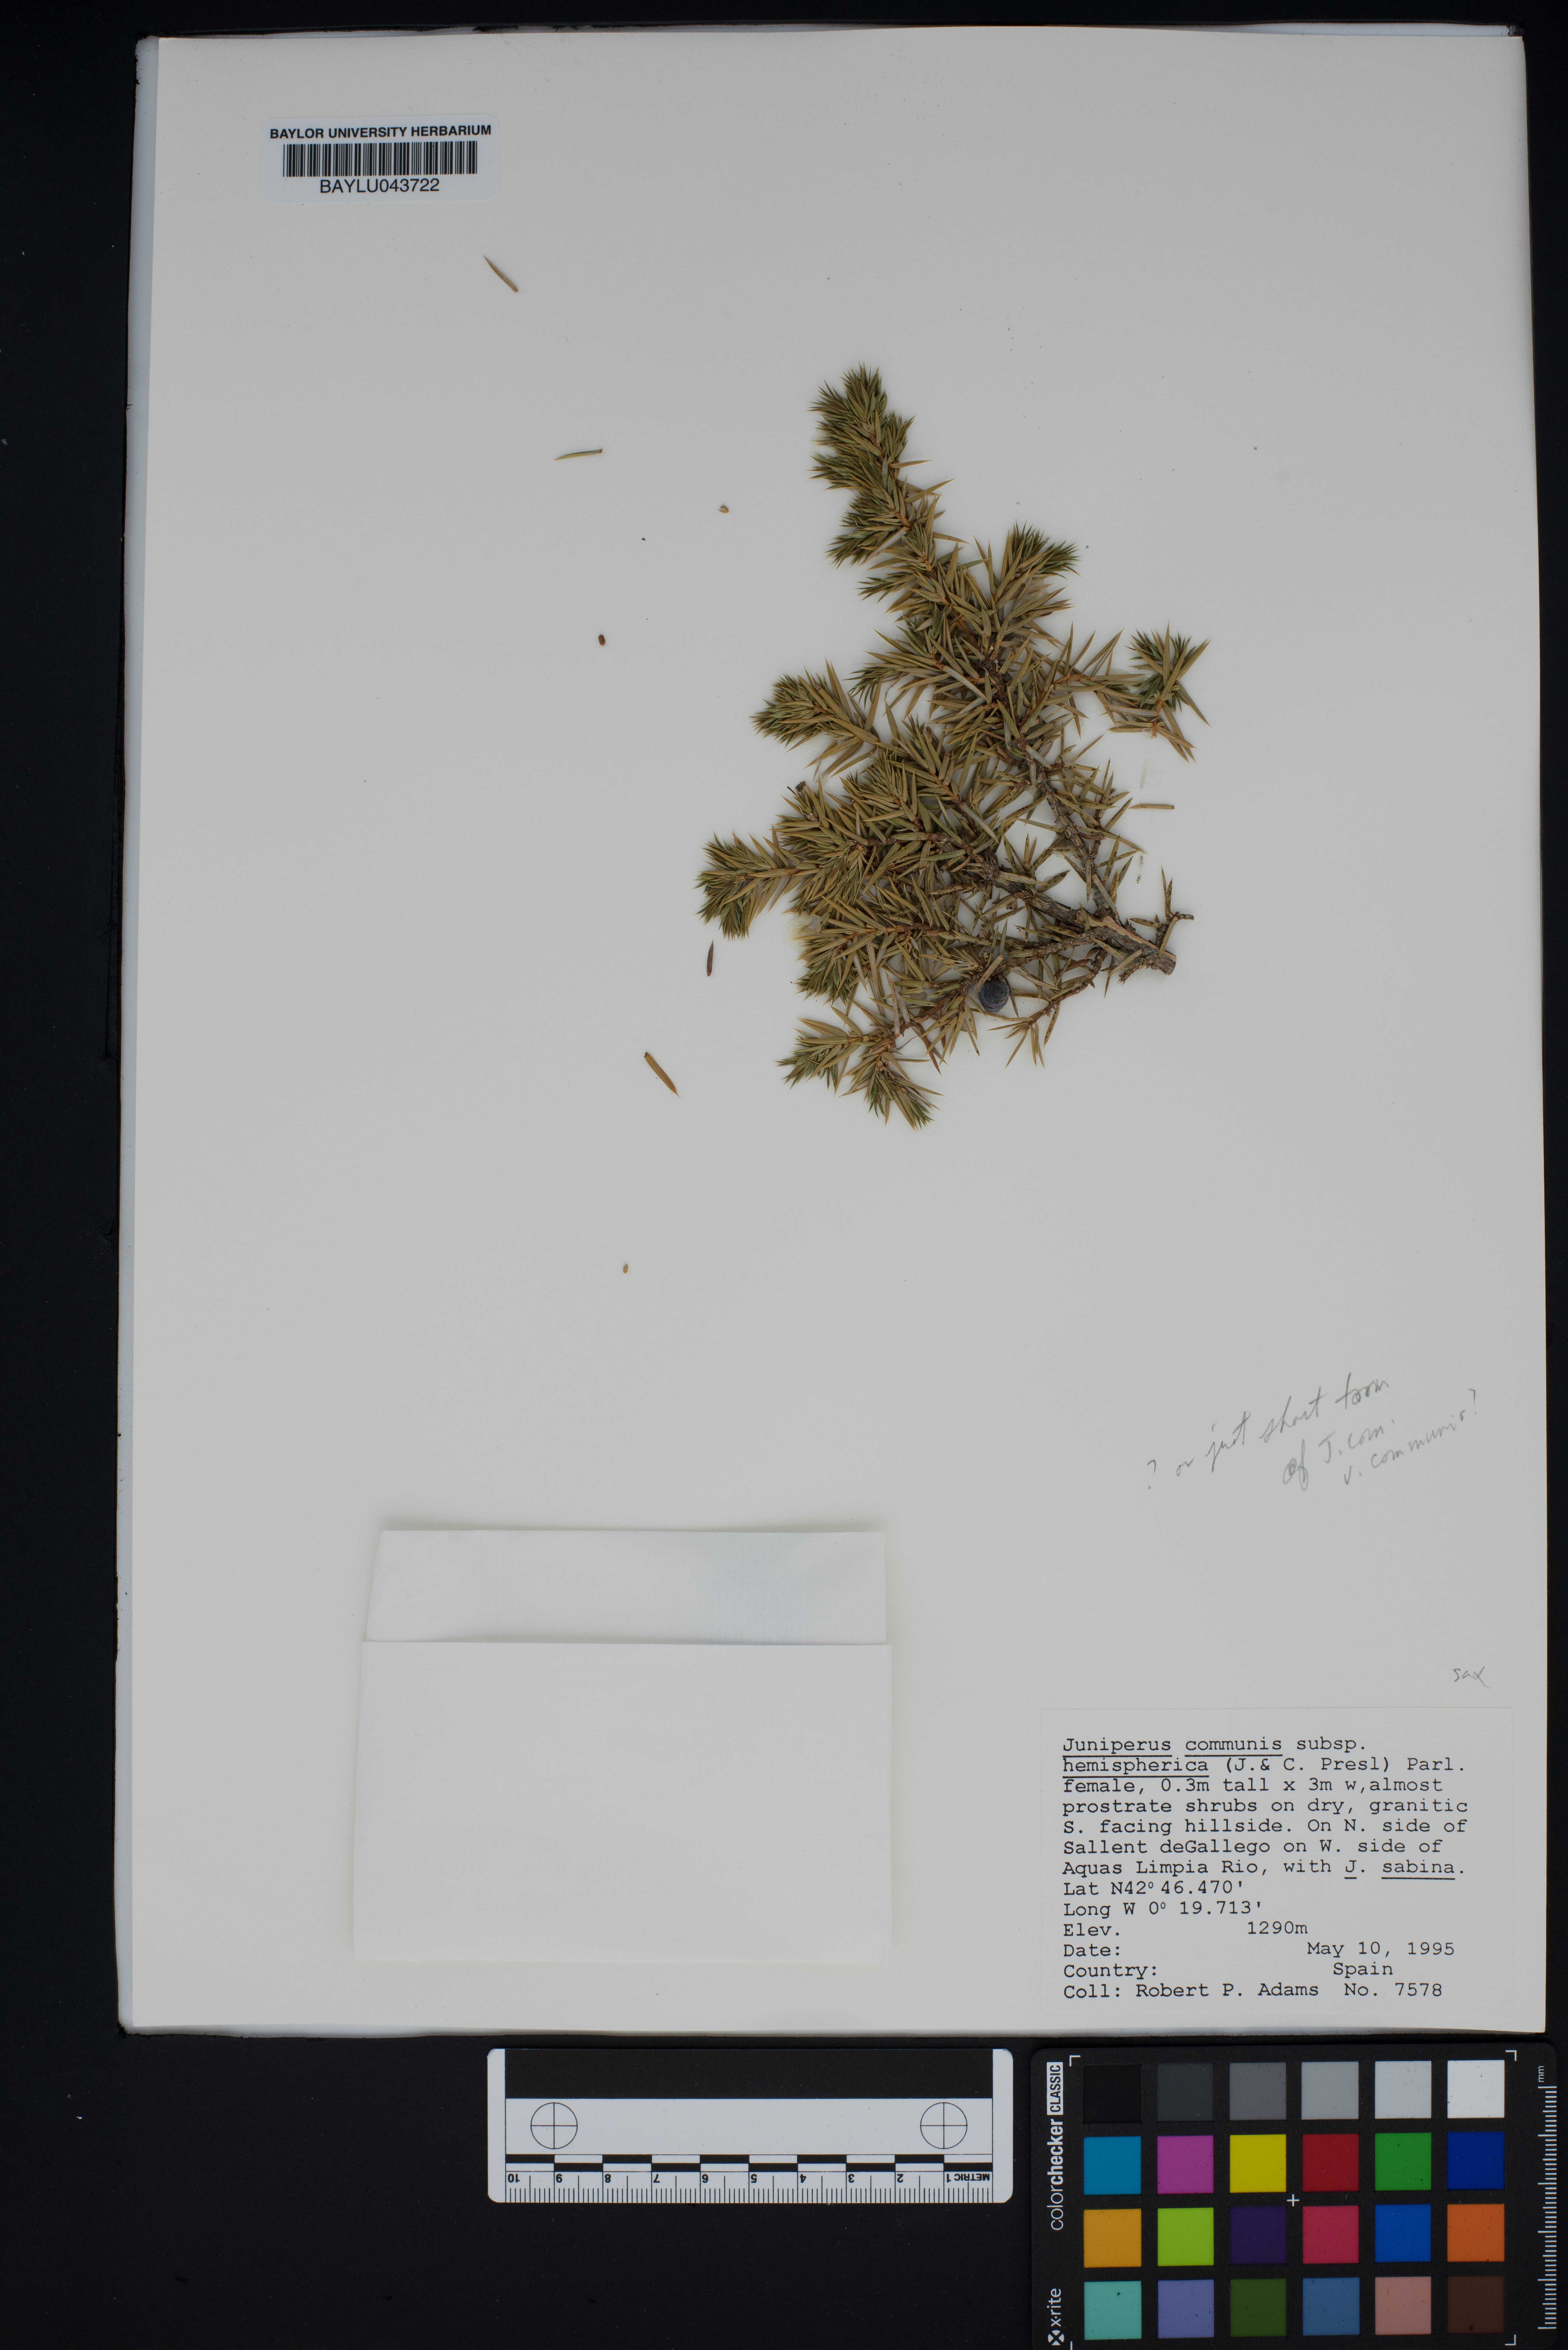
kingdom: Plantae
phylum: Tracheophyta
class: Pinopsida
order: Pinales
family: Cupressaceae
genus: Juniperus
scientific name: Juniperus communis
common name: Common juniper
